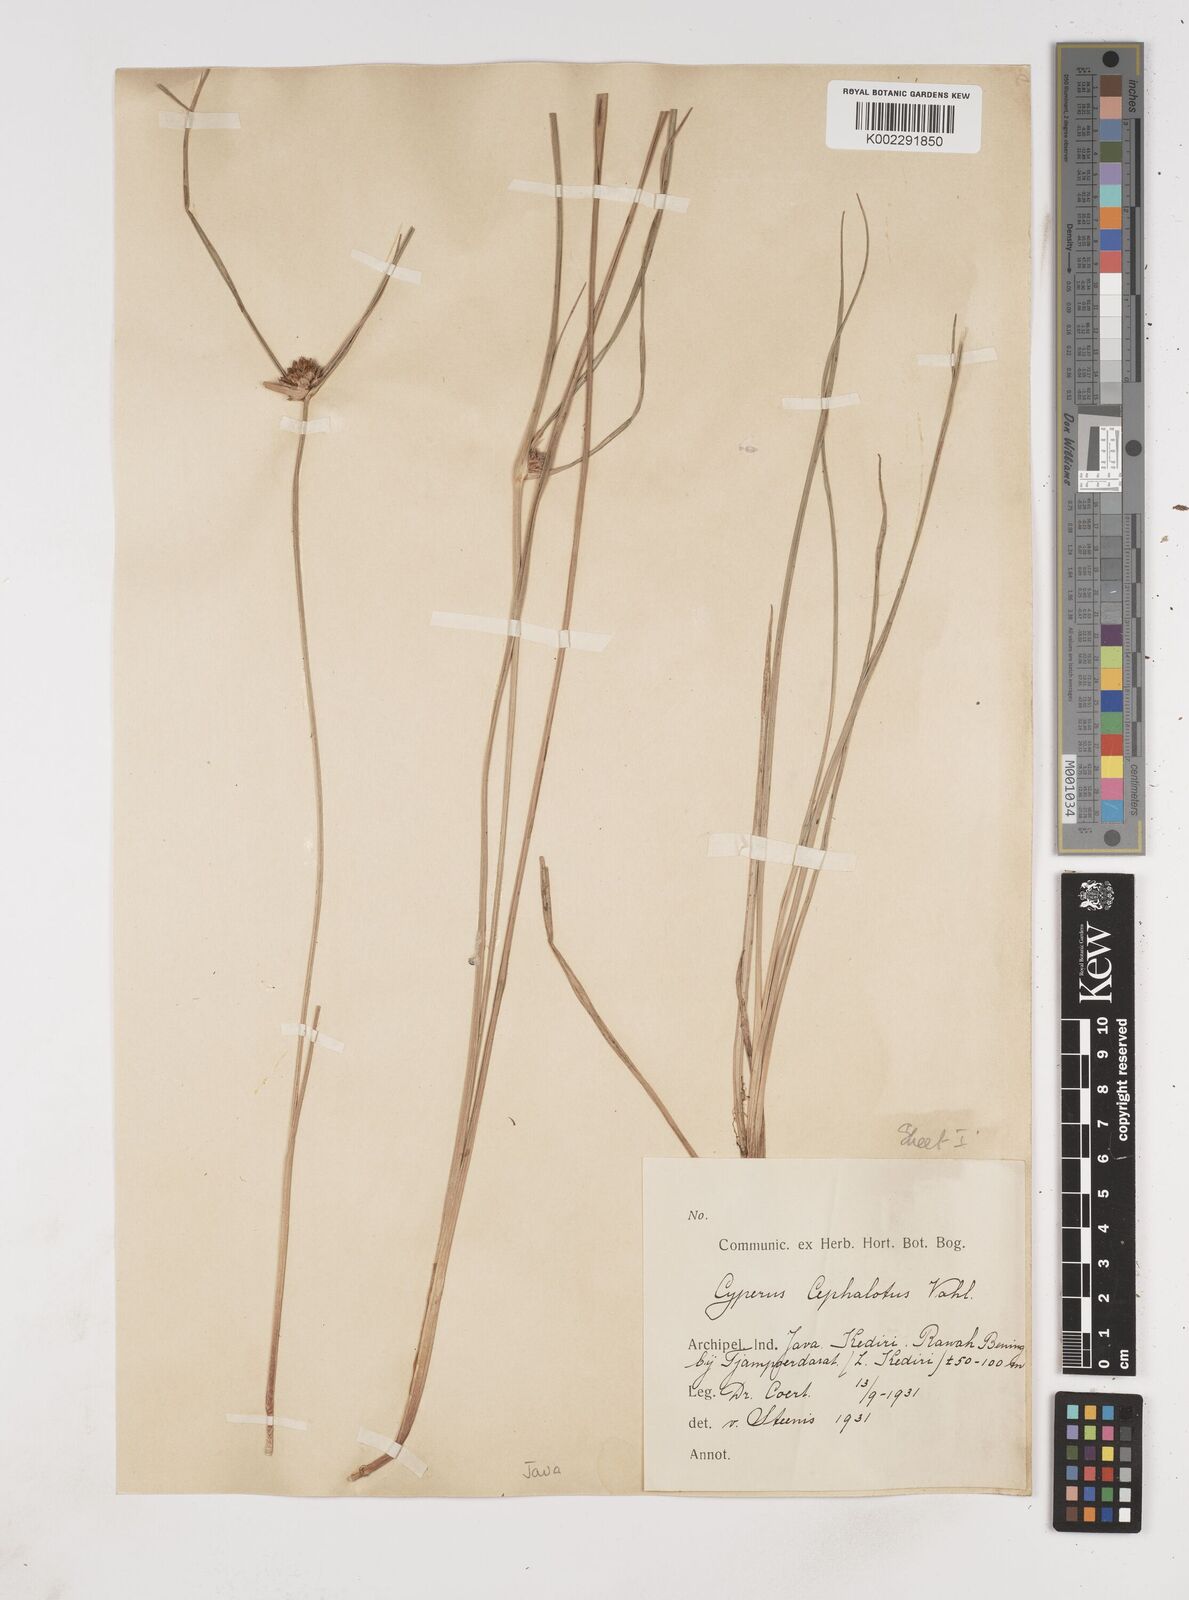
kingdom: Plantae
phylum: Tracheophyta
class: Liliopsida
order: Poales
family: Cyperaceae
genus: Cyperus
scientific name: Cyperus
